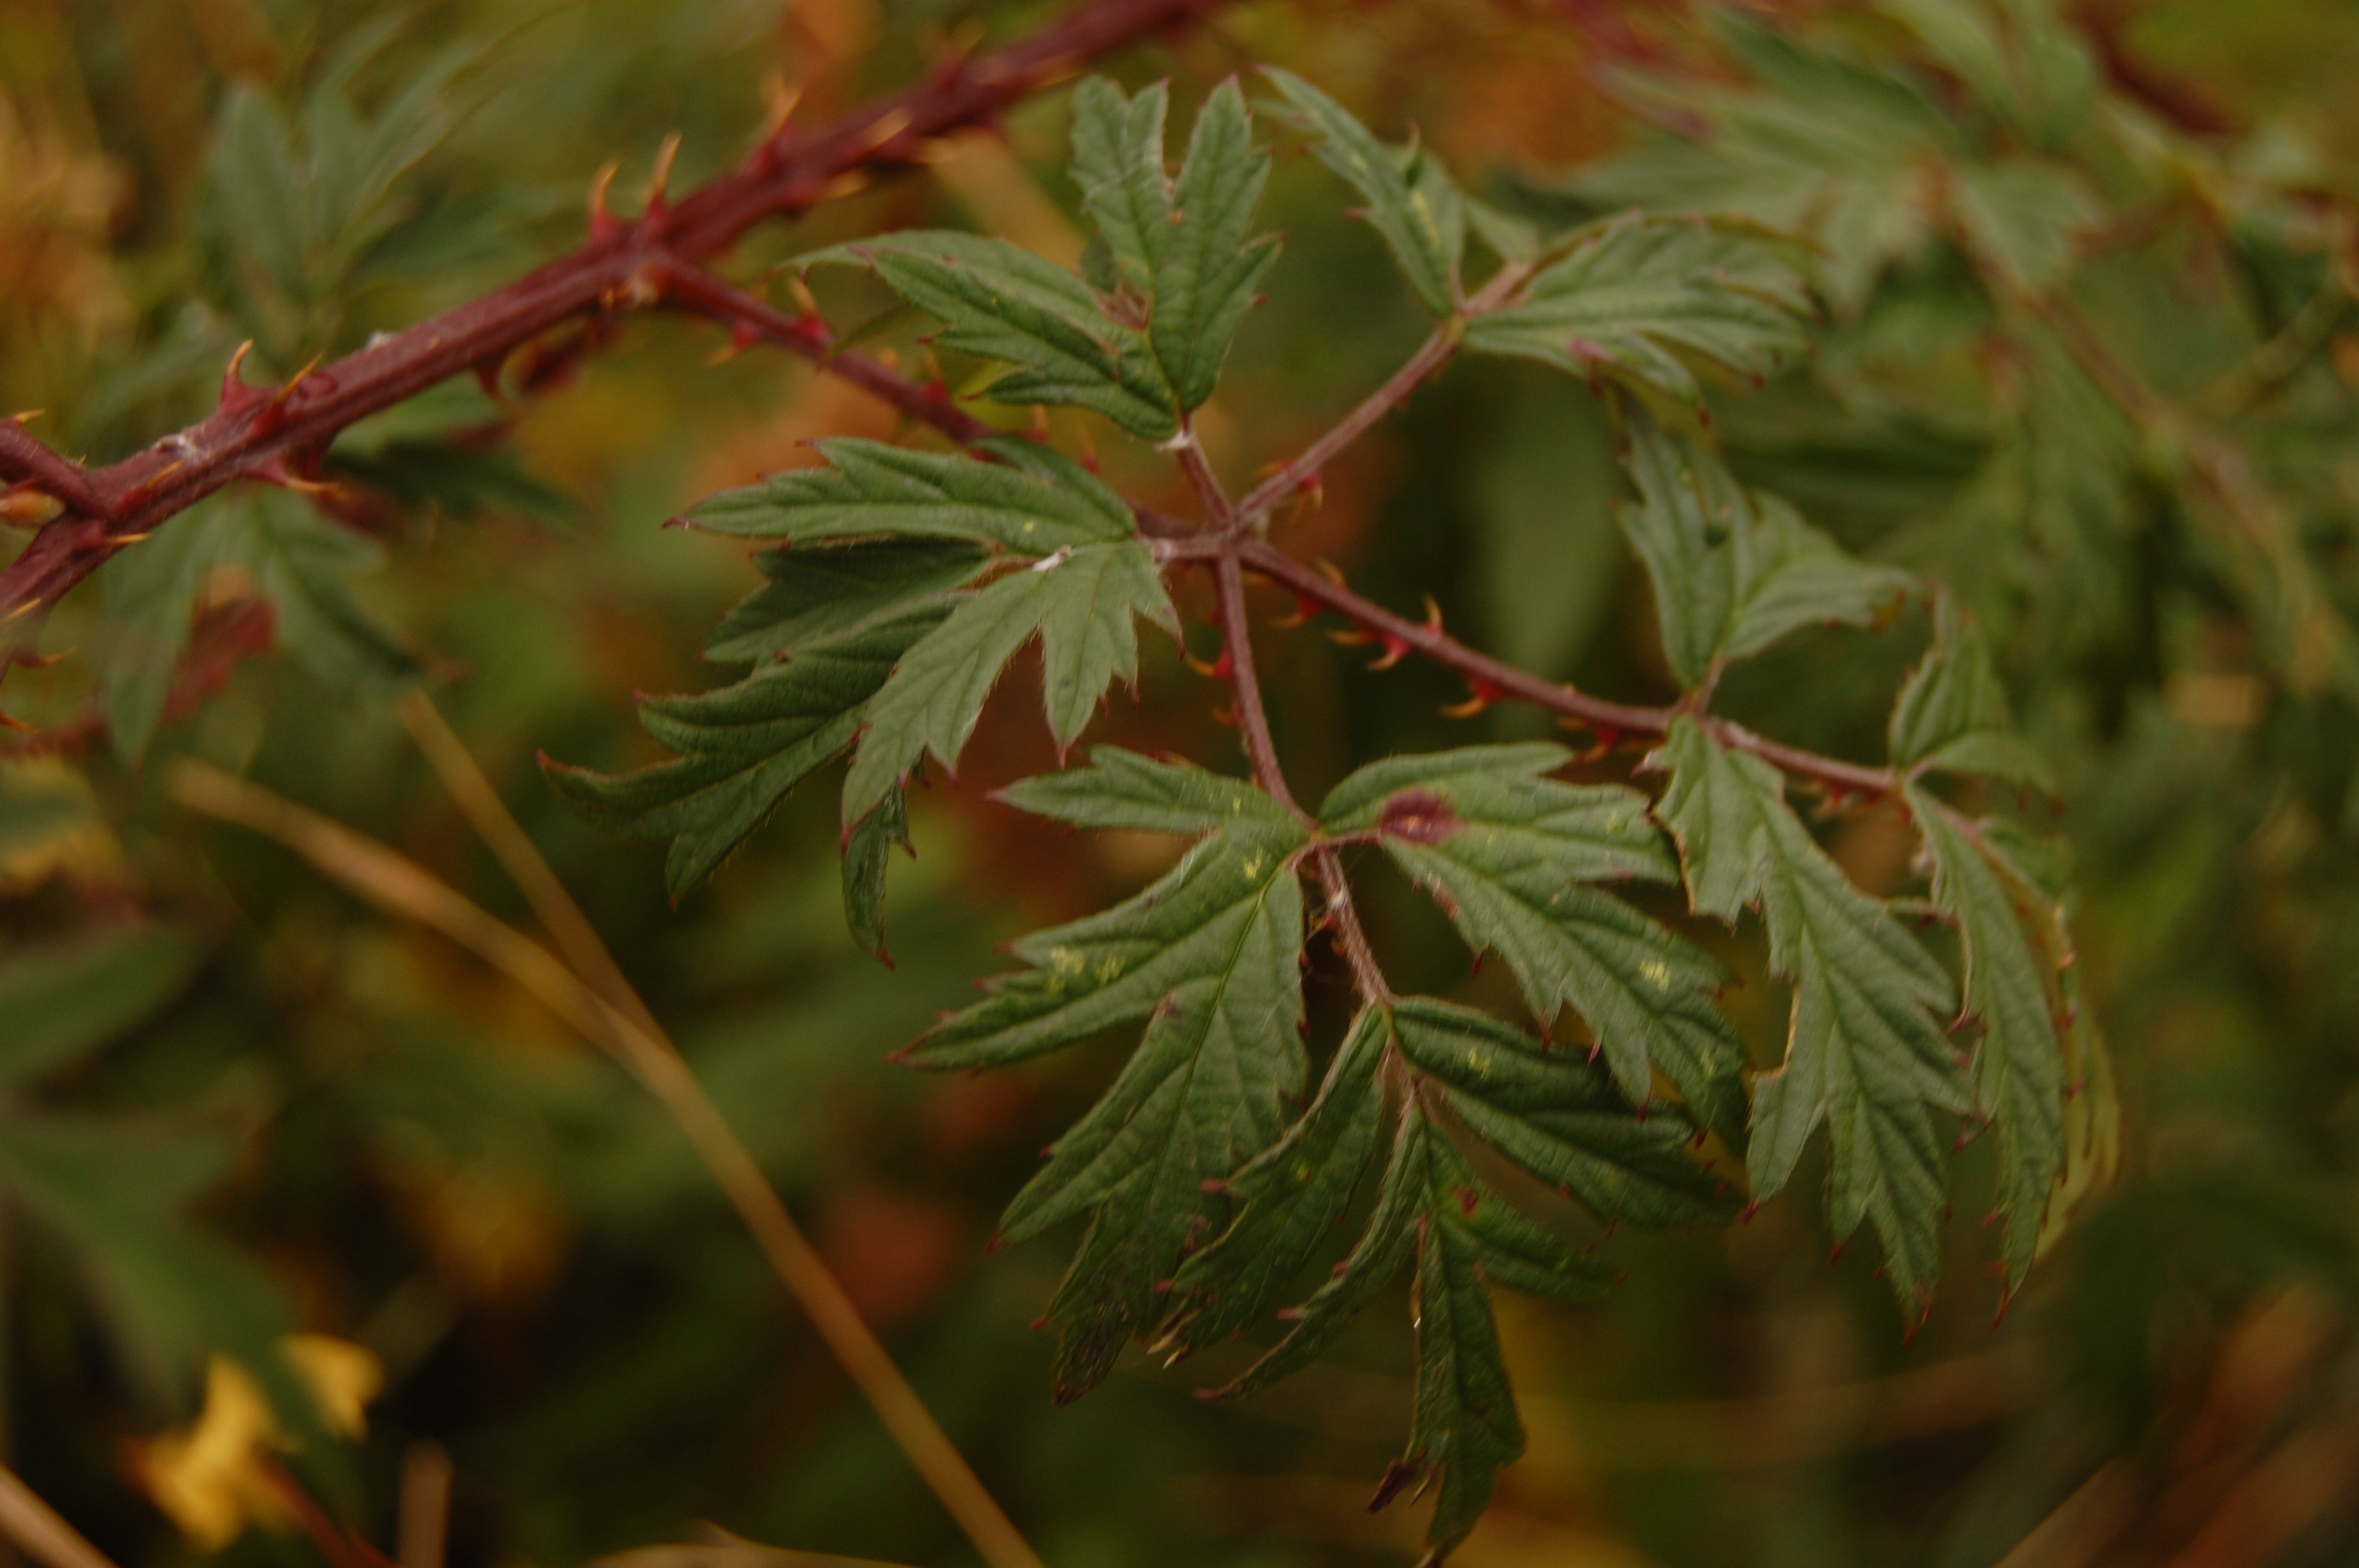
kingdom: Plantae
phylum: Tracheophyta
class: Magnoliopsida
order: Rosales
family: Rosaceae
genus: Rubus
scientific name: Rubus laciniatus
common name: Evergreen blackberry
